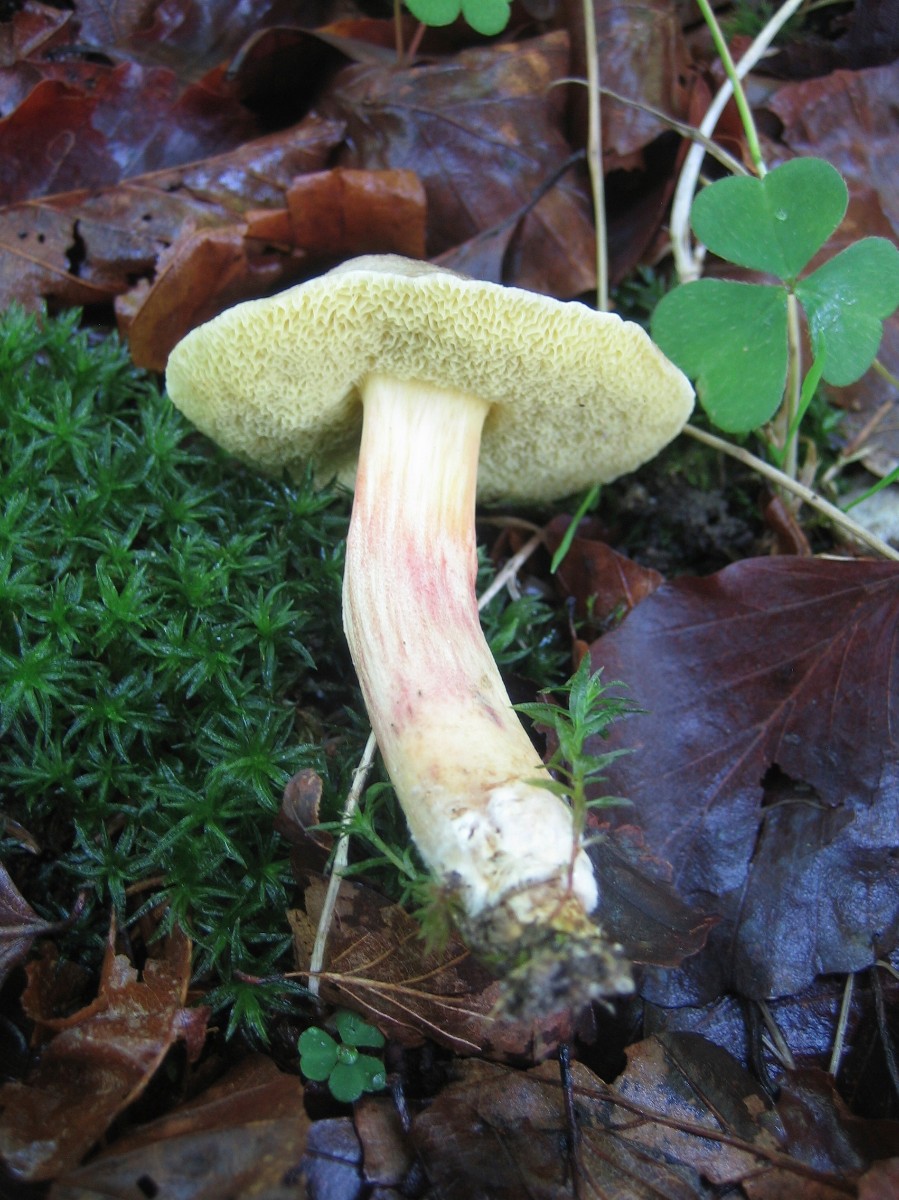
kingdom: Fungi
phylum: Basidiomycota
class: Agaricomycetes
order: Boletales
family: Boletaceae
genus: Xerocomellus
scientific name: Xerocomellus chrysenteron
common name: rødsprukken rørhat
